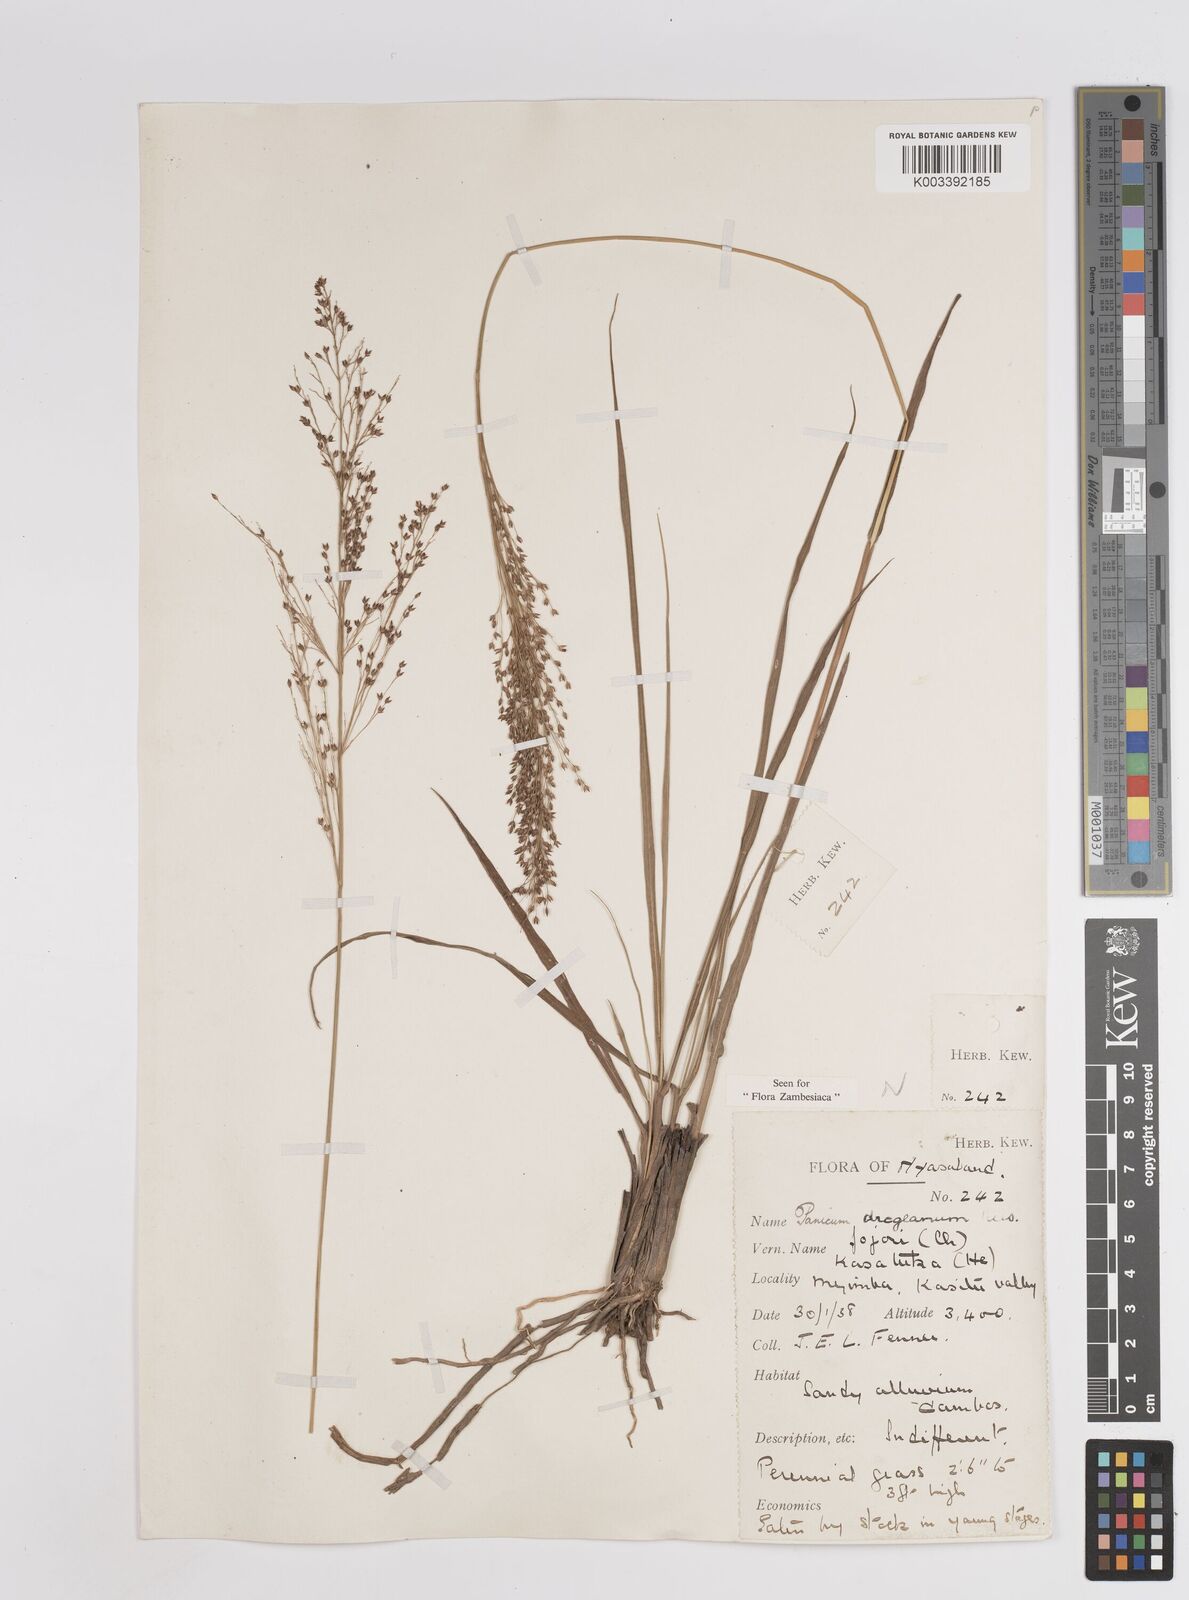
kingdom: Plantae
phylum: Tracheophyta
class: Liliopsida
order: Poales
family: Poaceae
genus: Panicum
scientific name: Panicum dregeanum
